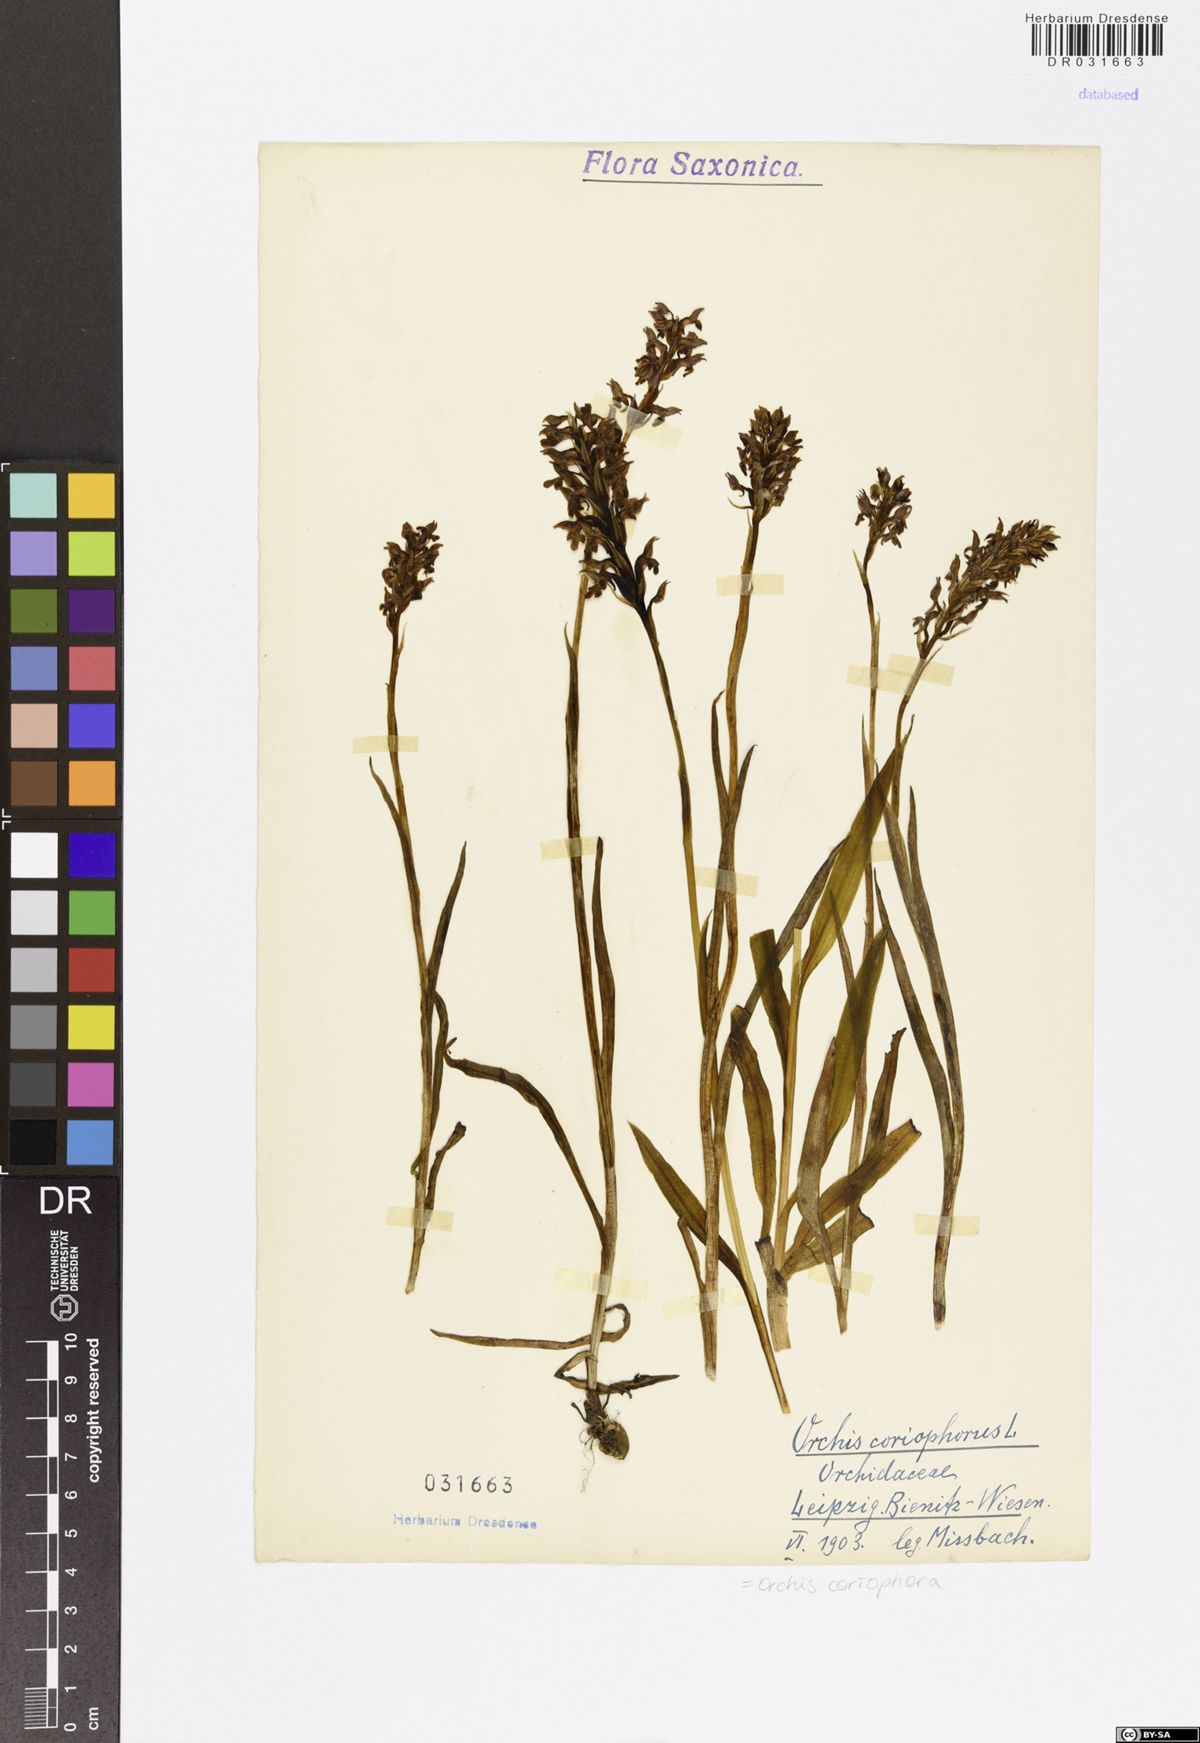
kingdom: Plantae
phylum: Tracheophyta
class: Liliopsida
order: Asparagales
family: Orchidaceae
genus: Anacamptis
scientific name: Anacamptis coriophora
